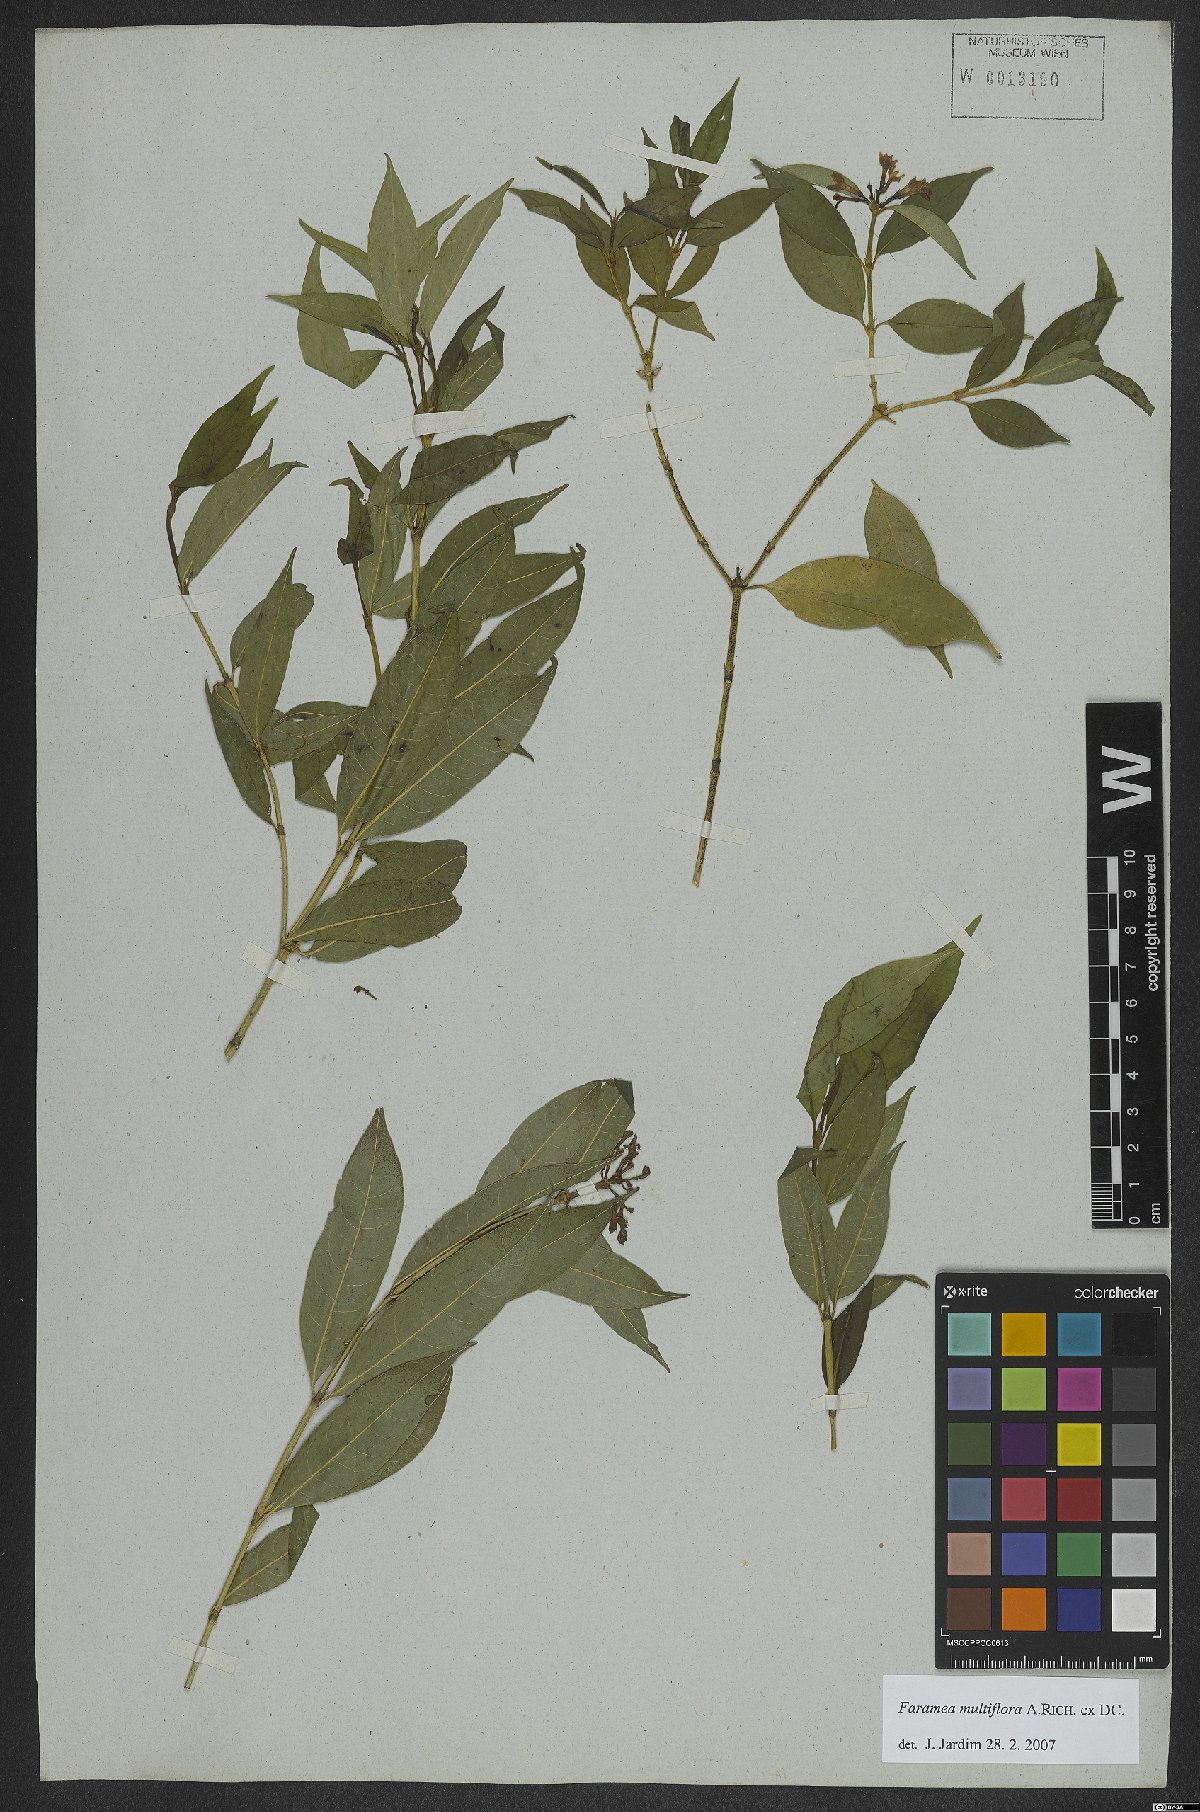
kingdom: Plantae
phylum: Tracheophyta
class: Magnoliopsida
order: Gentianales
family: Rubiaceae
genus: Faramea
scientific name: Faramea multiflora
